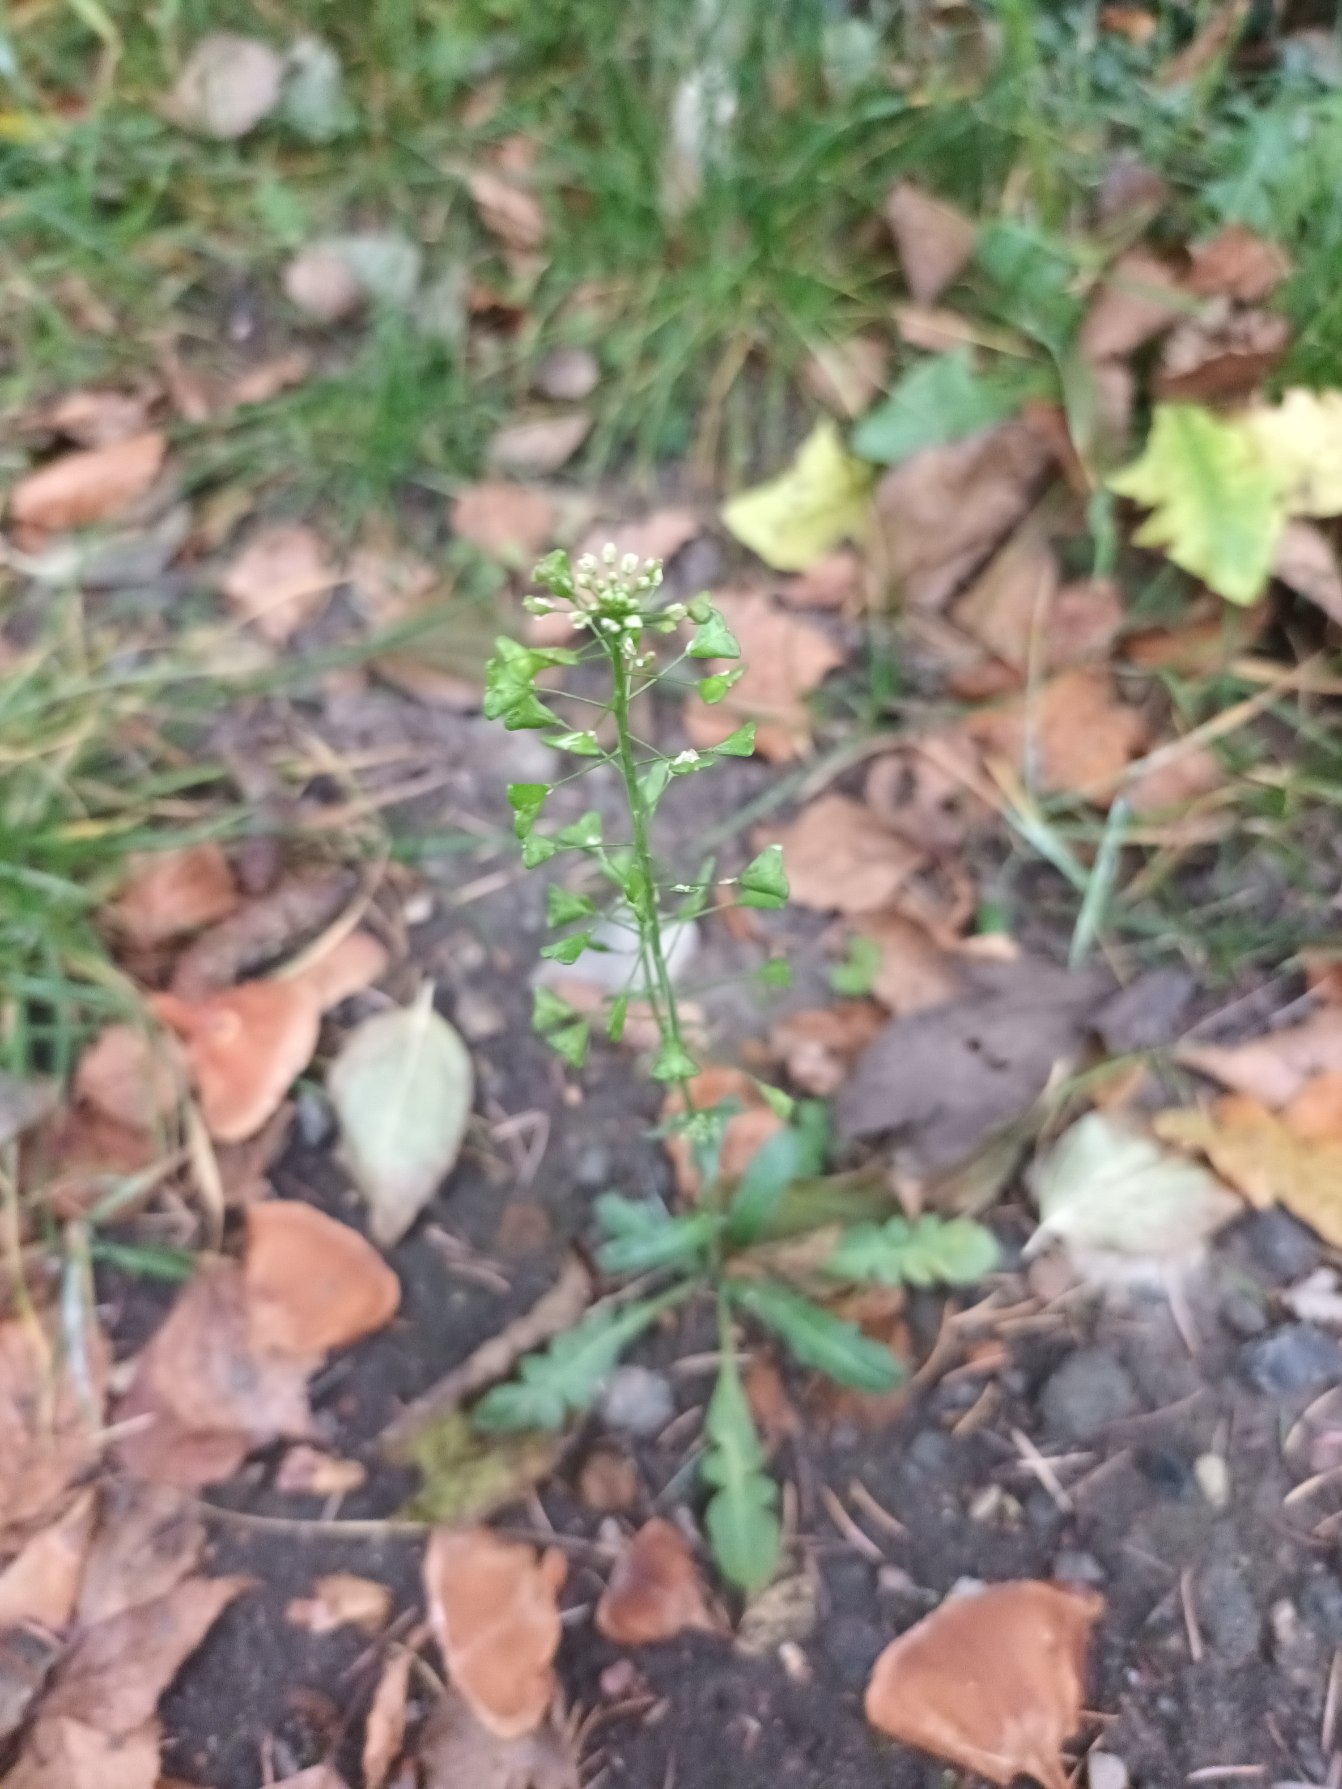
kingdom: Plantae
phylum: Tracheophyta
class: Magnoliopsida
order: Brassicales
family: Brassicaceae
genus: Capsella
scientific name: Capsella bursa-pastoris
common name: Hyrdetaske
